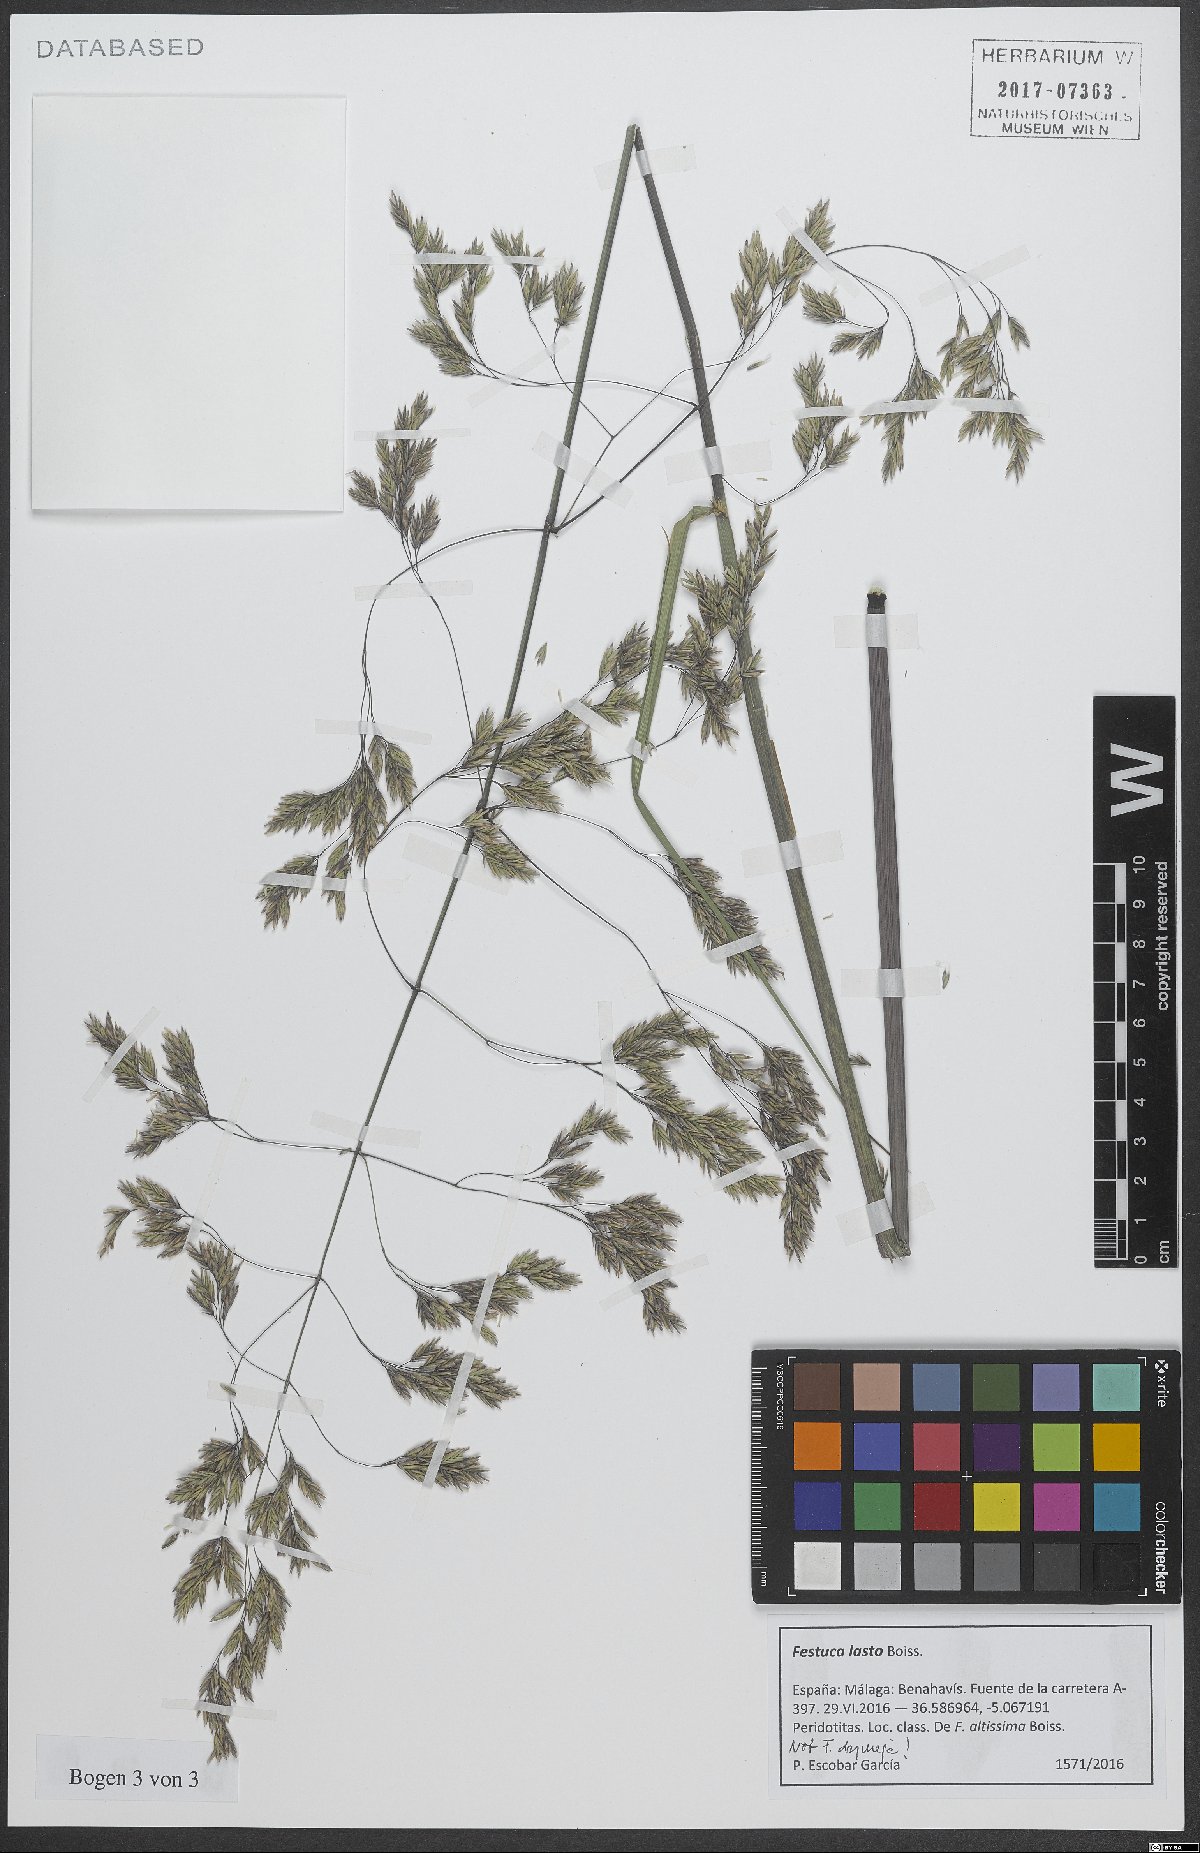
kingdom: Plantae
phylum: Tracheophyta
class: Liliopsida
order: Poales
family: Poaceae
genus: Festuca
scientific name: Festuca drymeja
